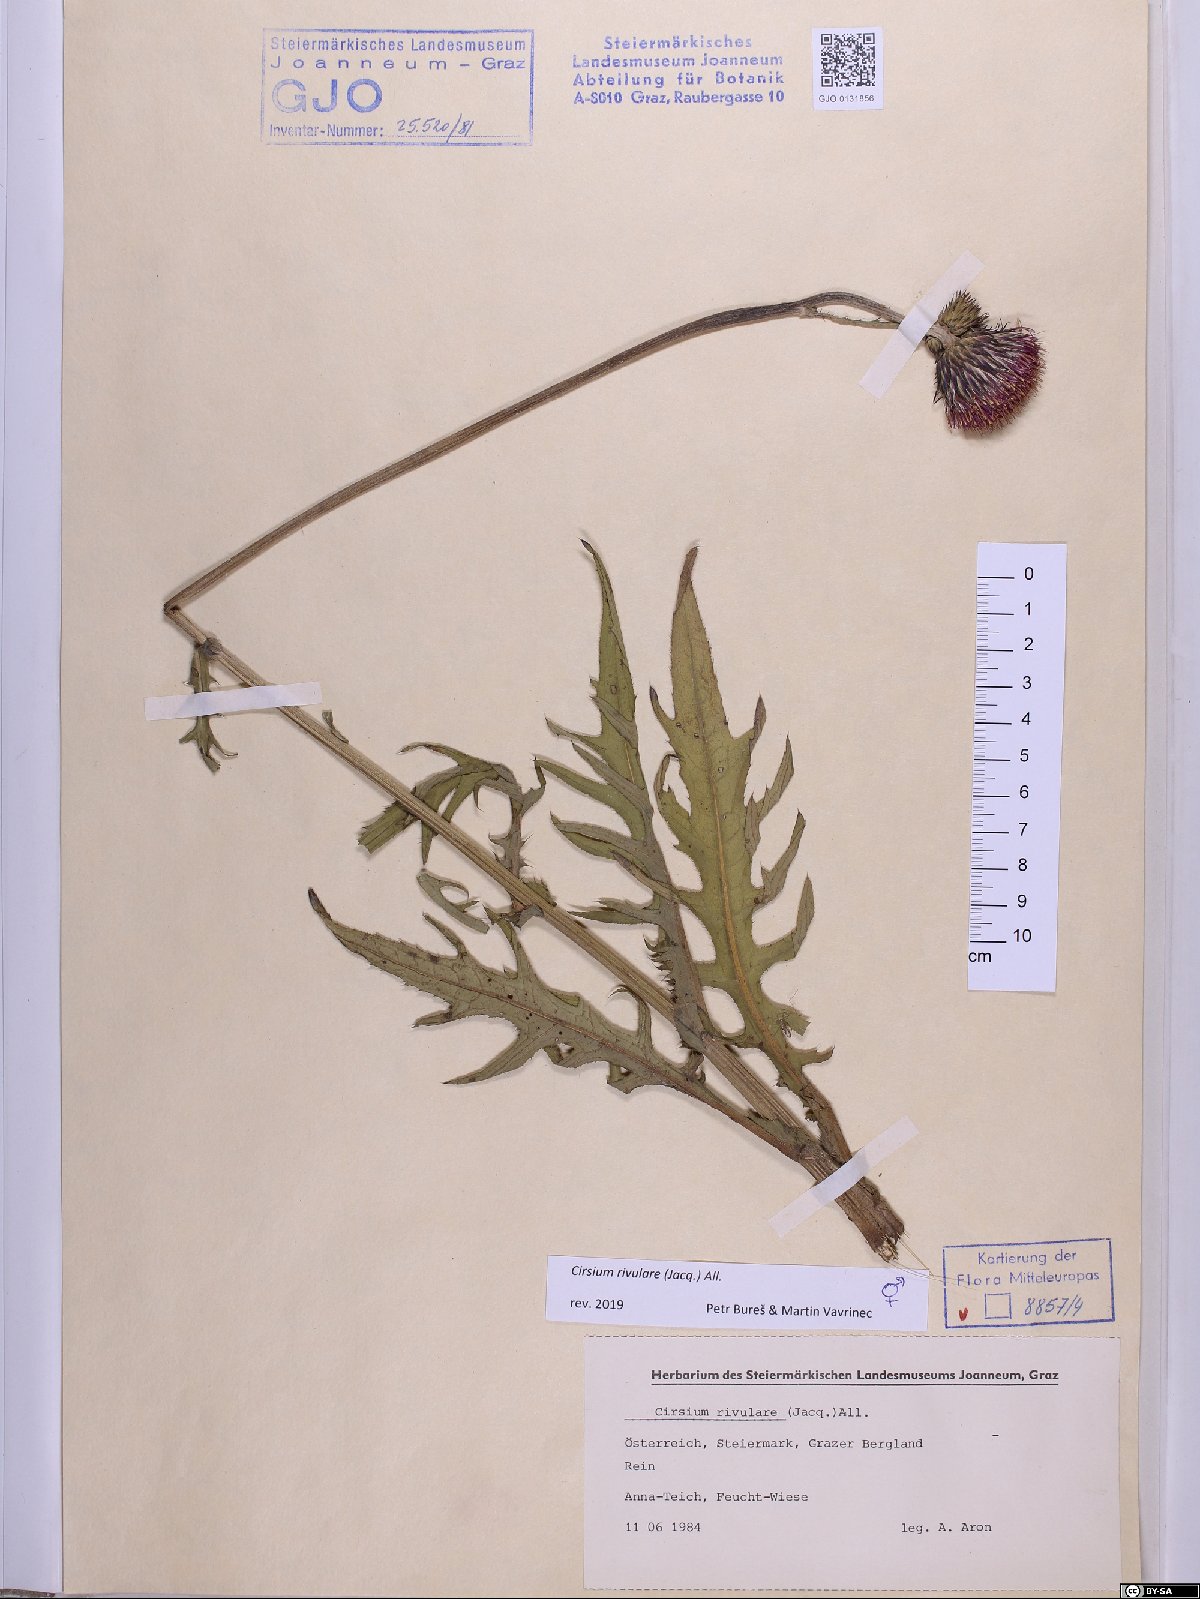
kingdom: Plantae
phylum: Tracheophyta
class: Magnoliopsida
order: Asterales
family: Asteraceae
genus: Cirsium
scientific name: Cirsium rivulare
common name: Brook thistle
